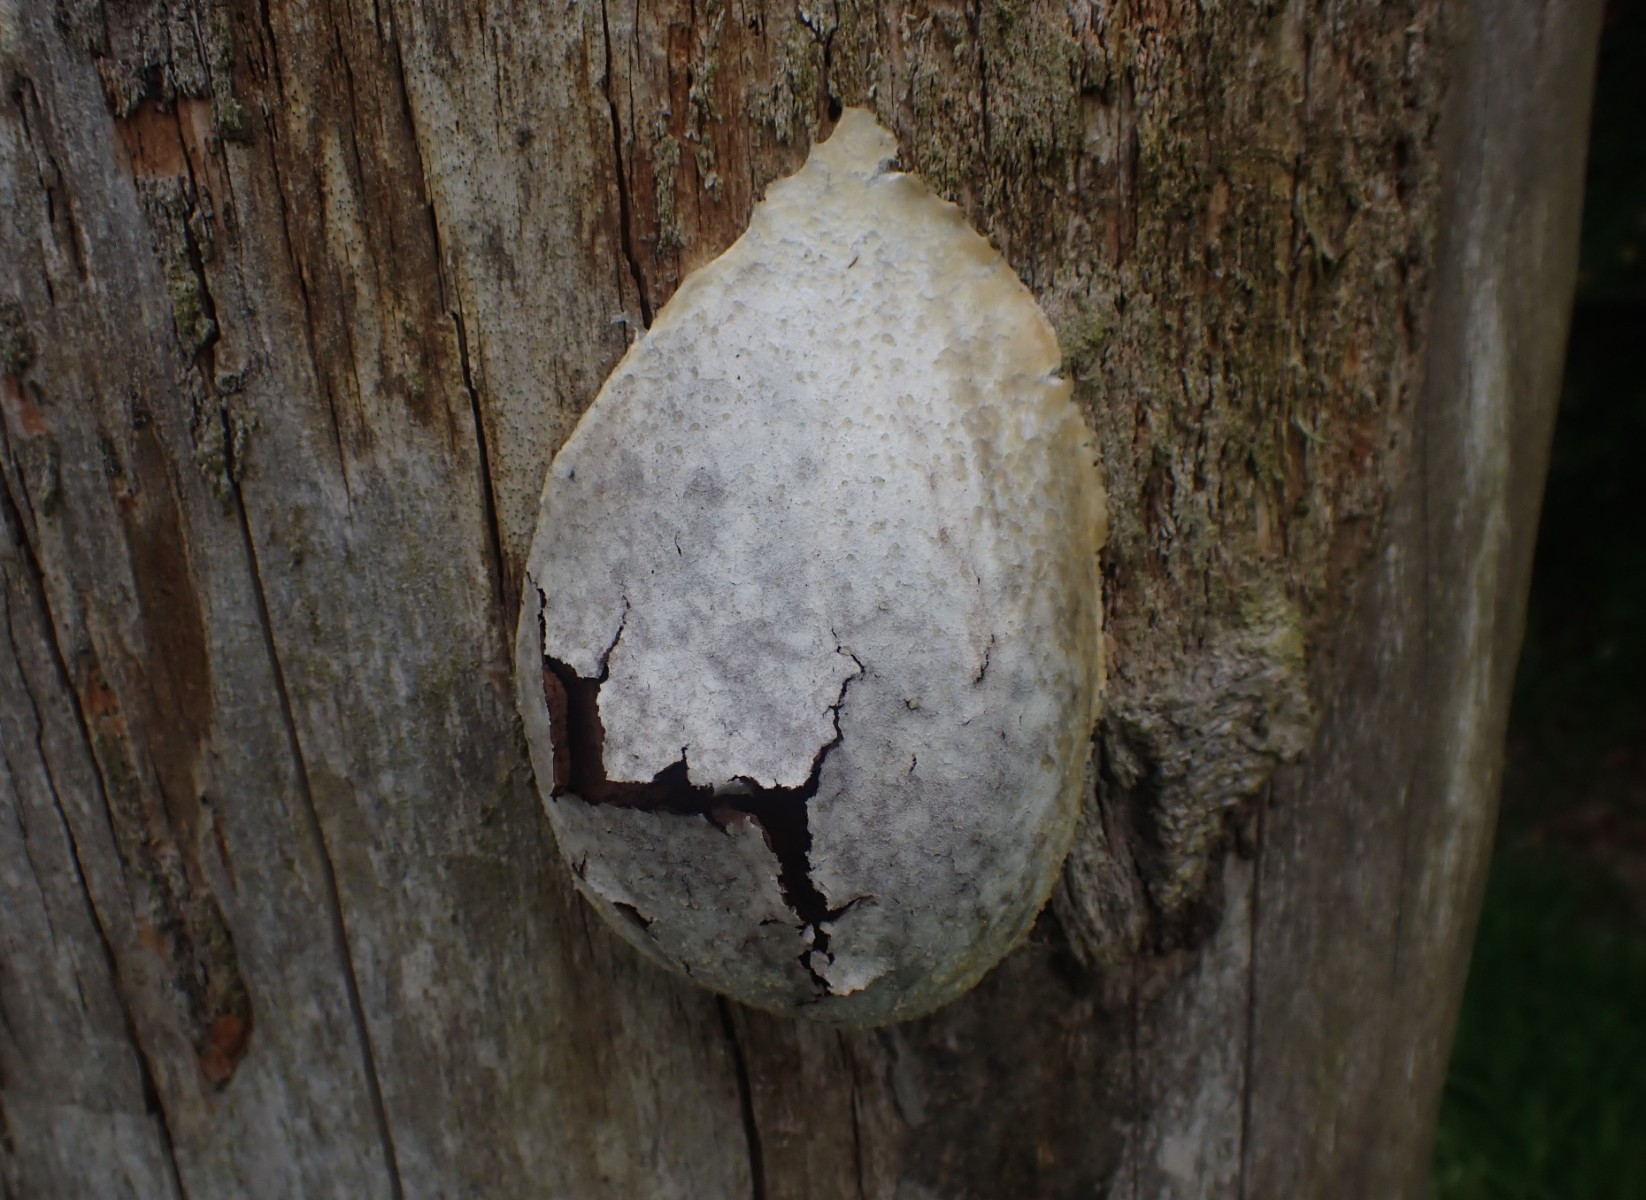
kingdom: Protozoa
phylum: Mycetozoa
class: Myxomycetes
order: Cribrariales
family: Tubiferaceae
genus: Reticularia
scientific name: Reticularia lycoperdon
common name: skinnende støvpude
